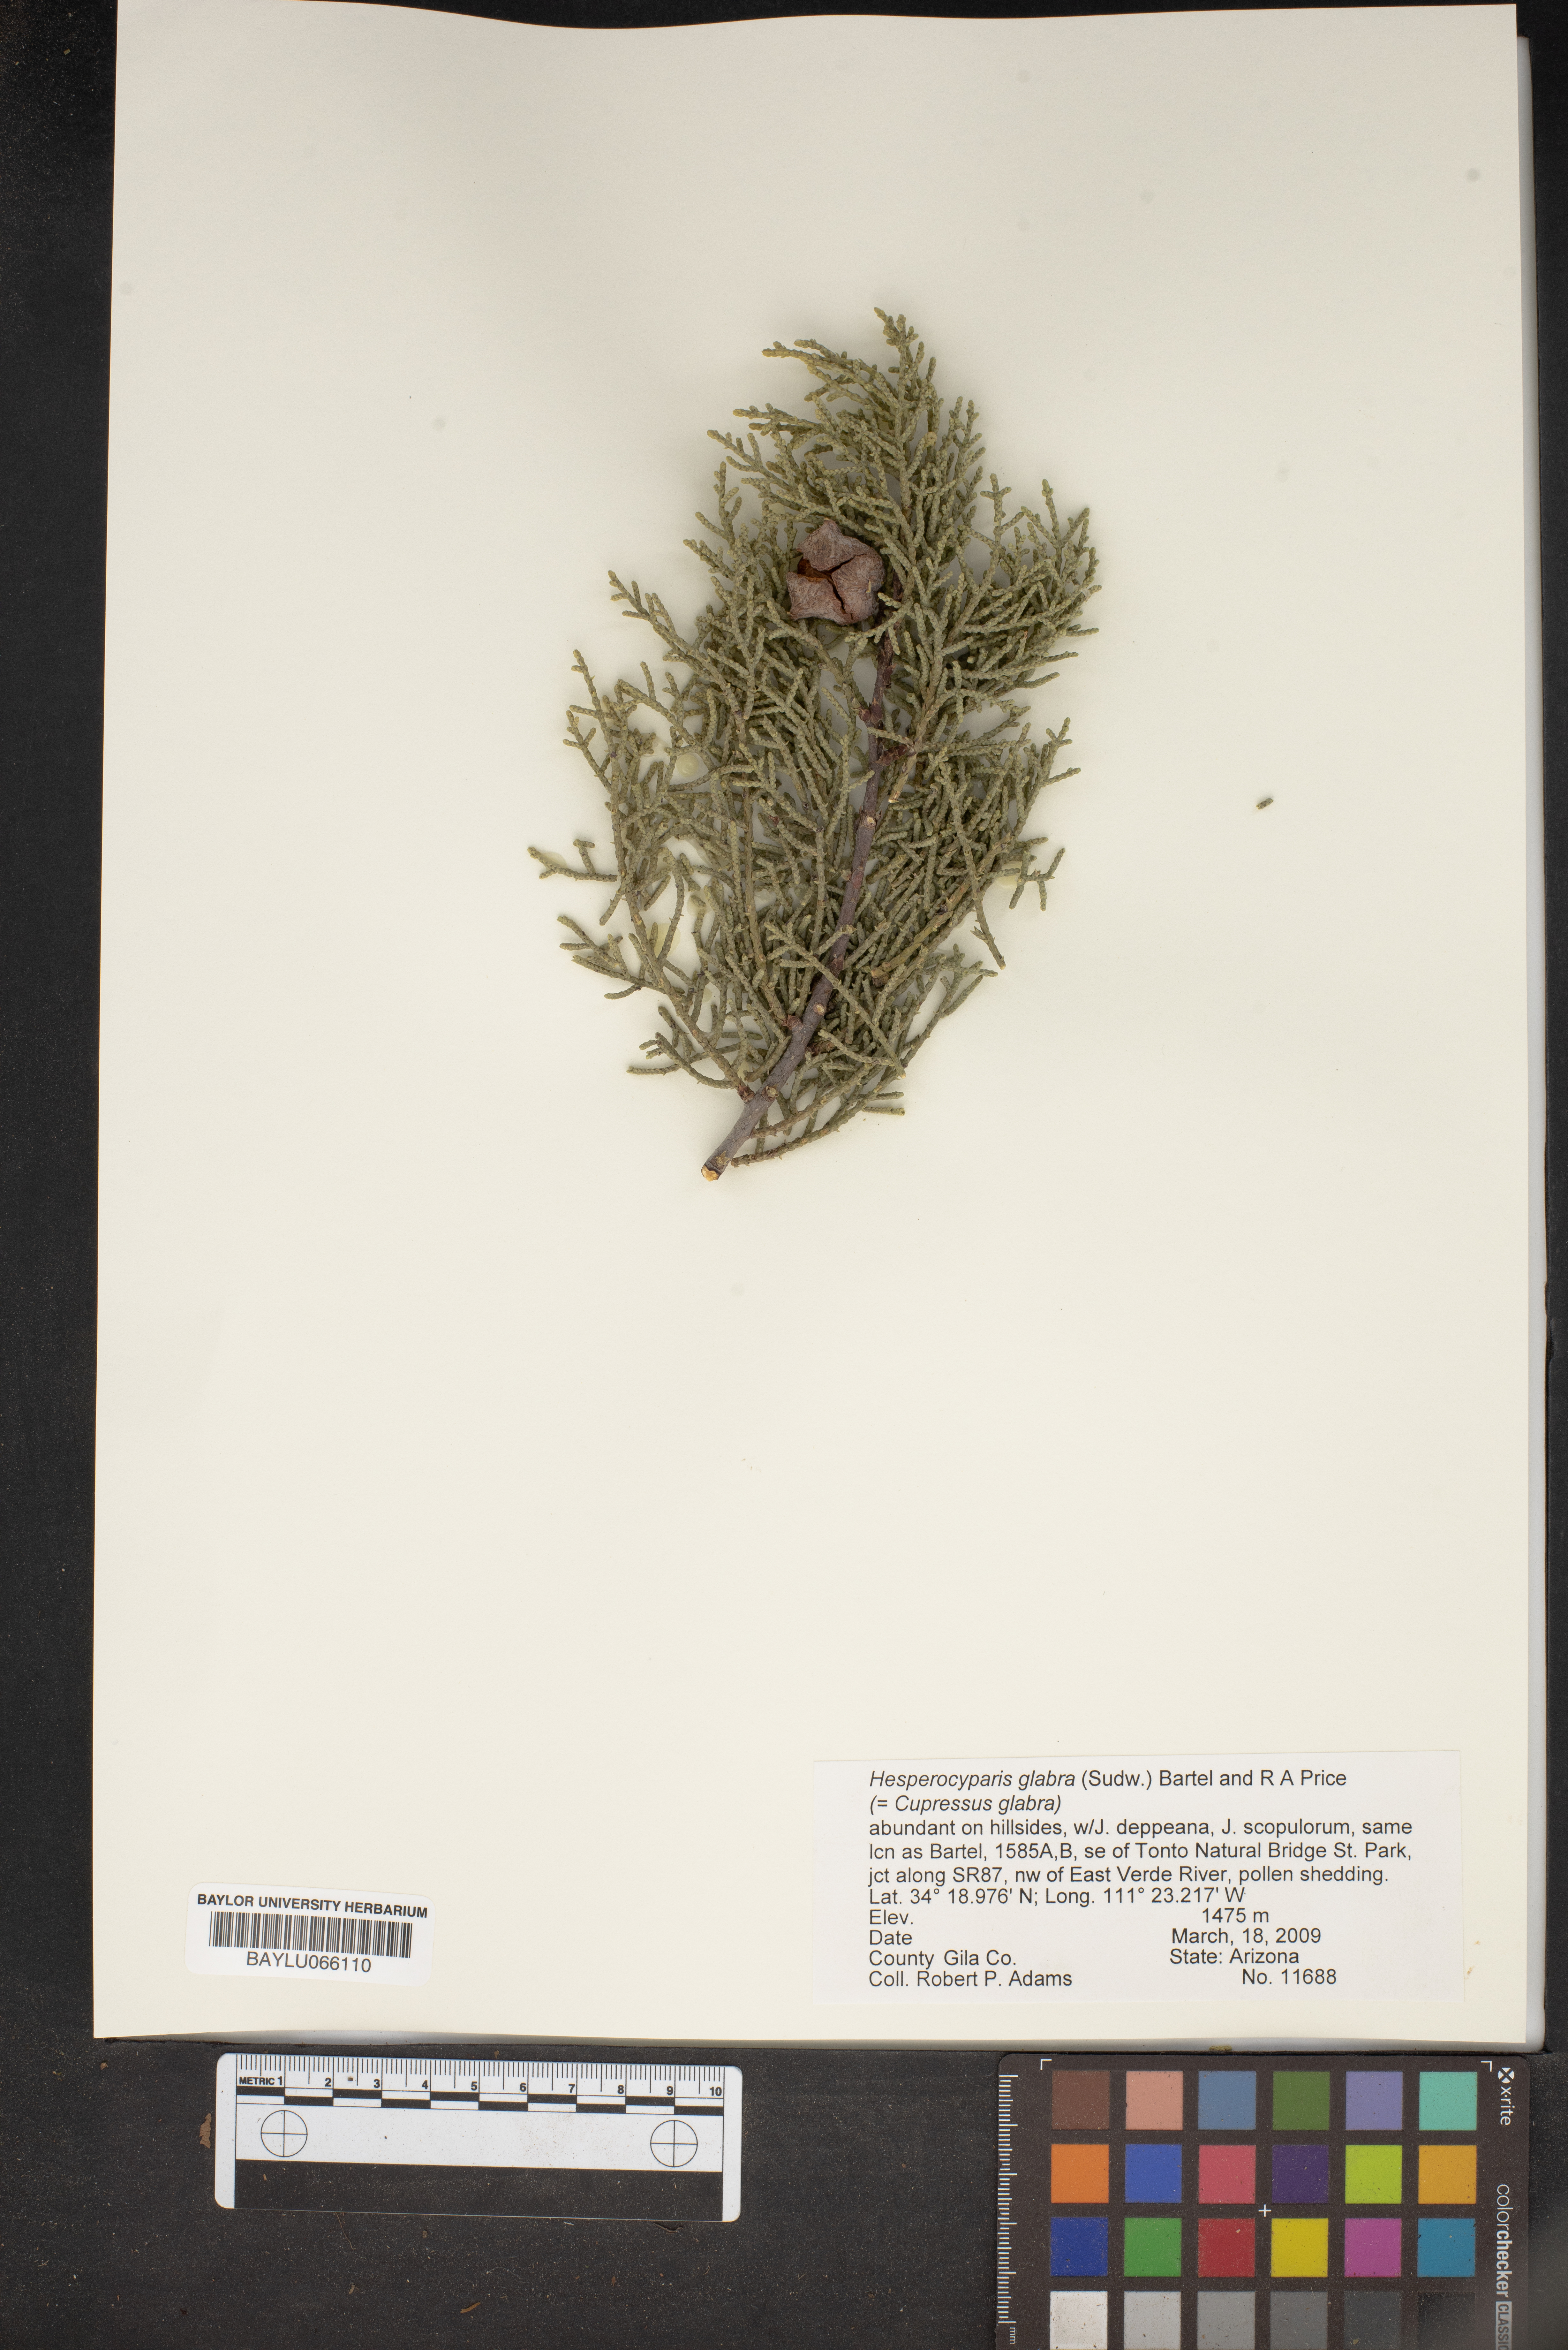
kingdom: Plantae
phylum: Tracheophyta
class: Pinopsida
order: Pinales
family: Cupressaceae
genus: Cupressus
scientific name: Cupressus arizonica
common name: Arizona cypress
